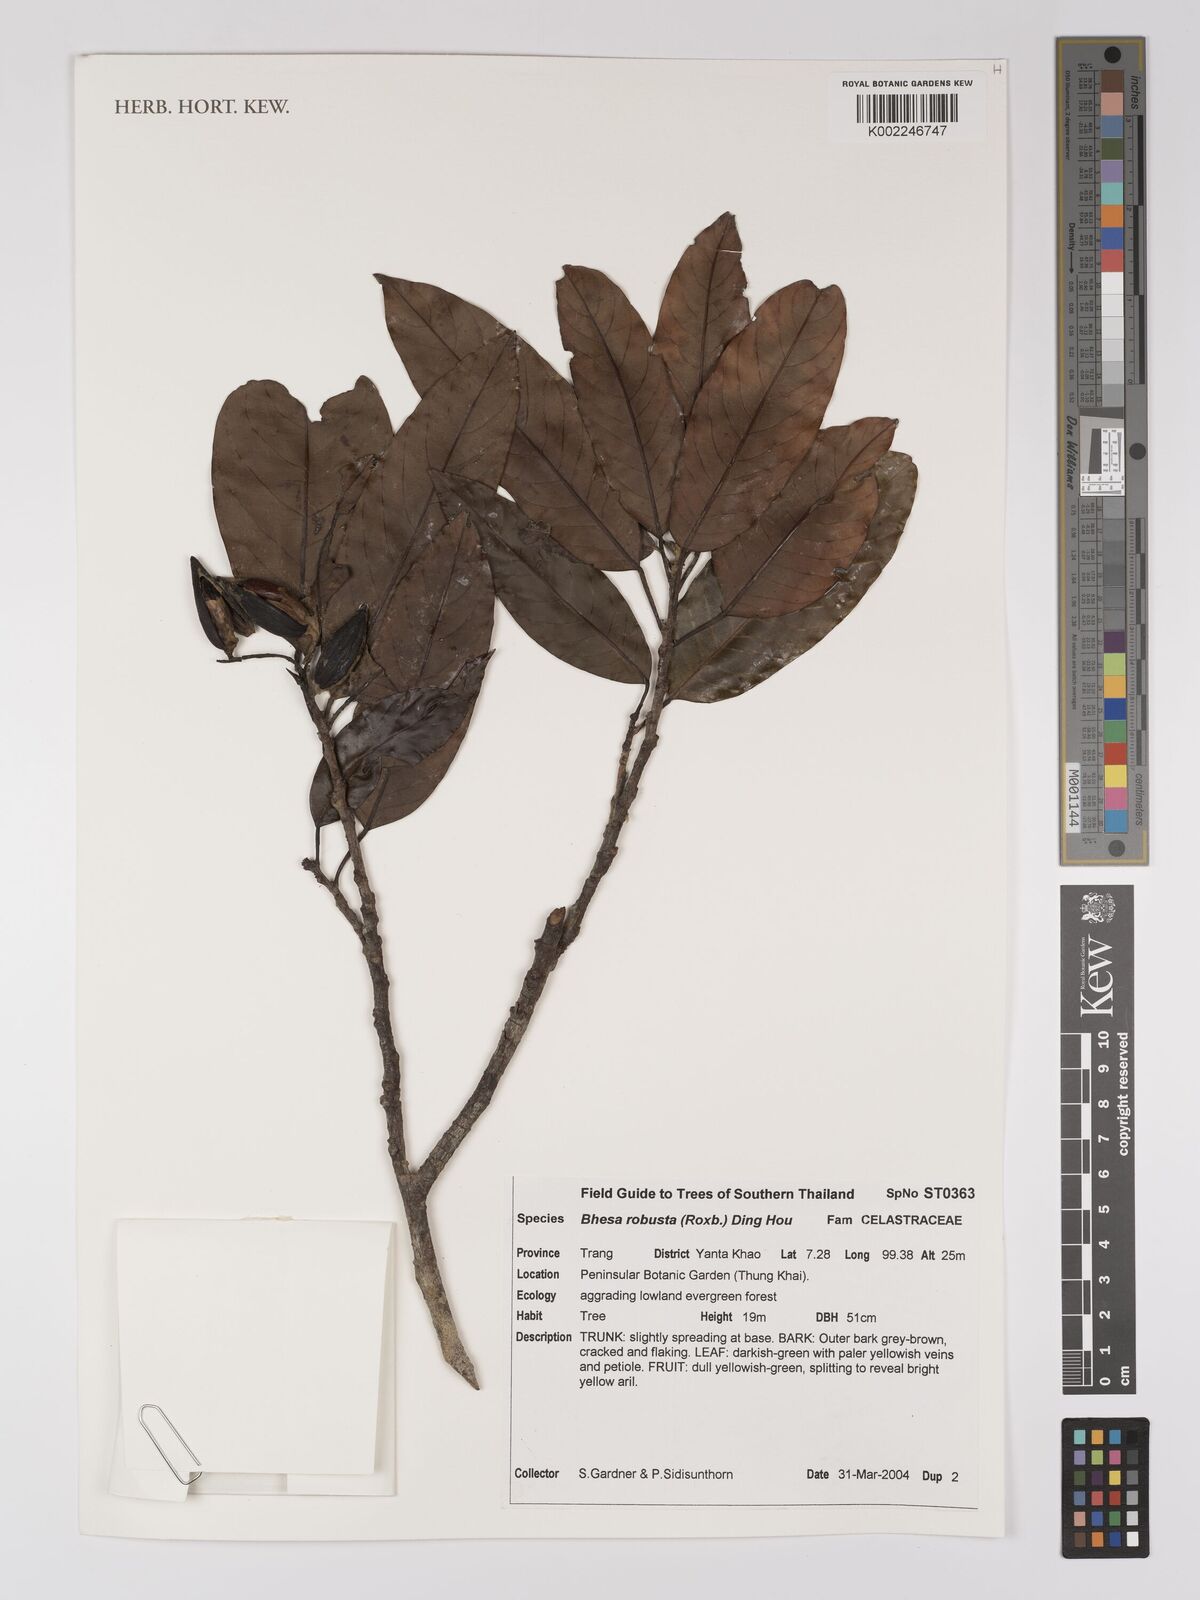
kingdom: Plantae
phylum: Tracheophyta
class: Magnoliopsida
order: Malpighiales
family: Centroplacaceae
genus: Bhesa
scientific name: Bhesa robusta
